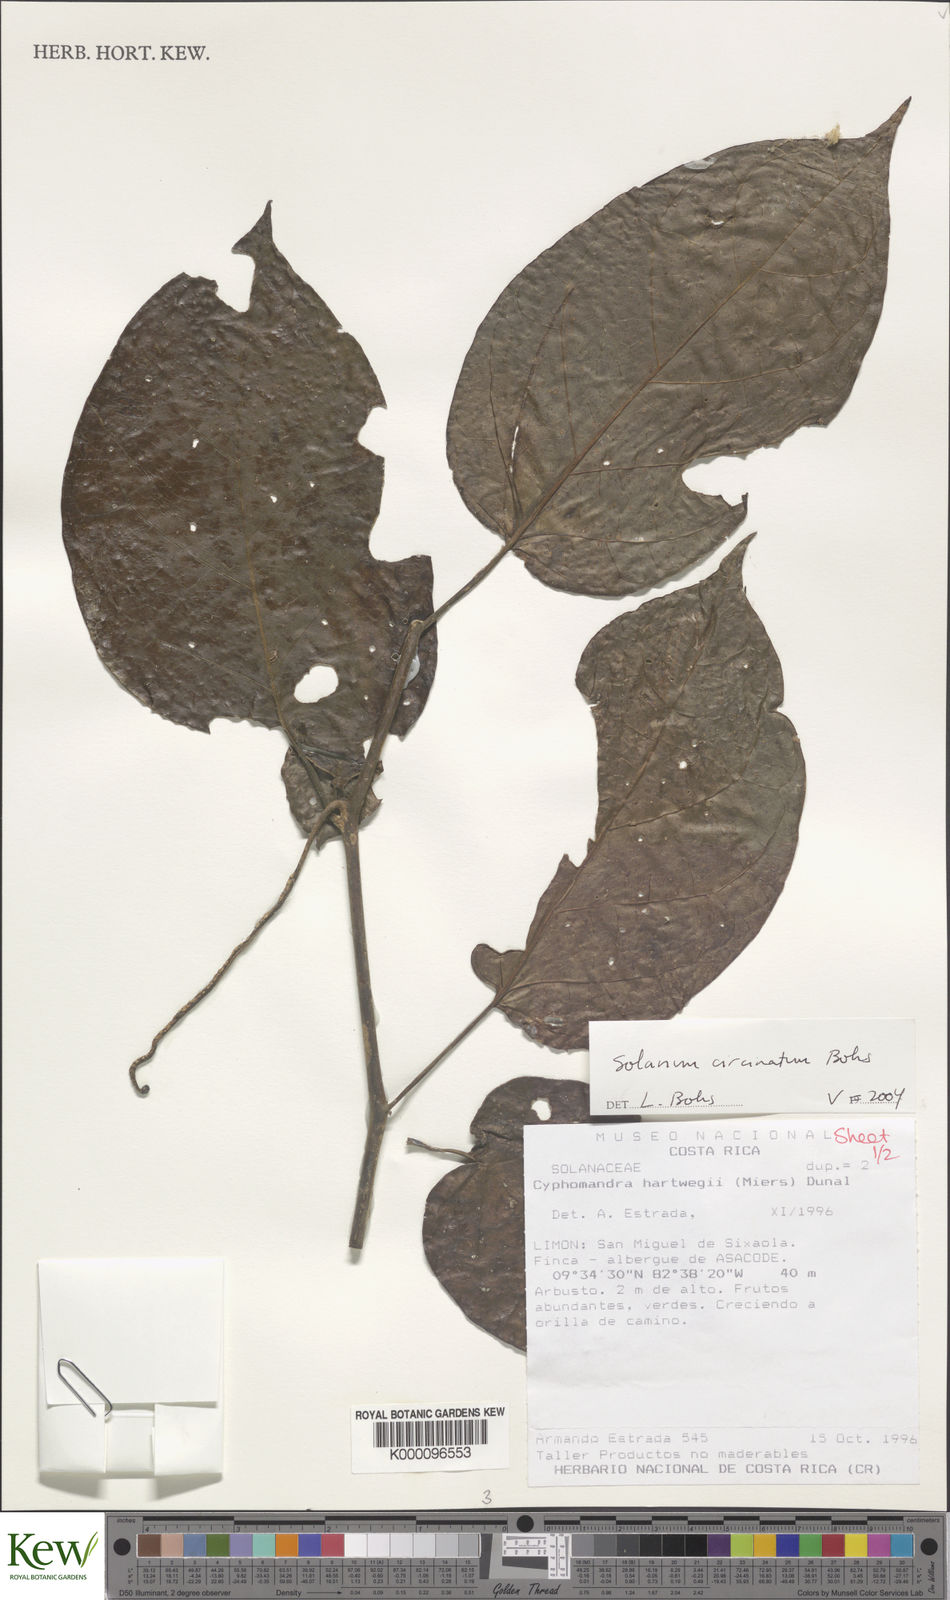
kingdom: Plantae
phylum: Tracheophyta
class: Magnoliopsida
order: Solanales
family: Solanaceae
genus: Solanum
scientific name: Solanum splendens
